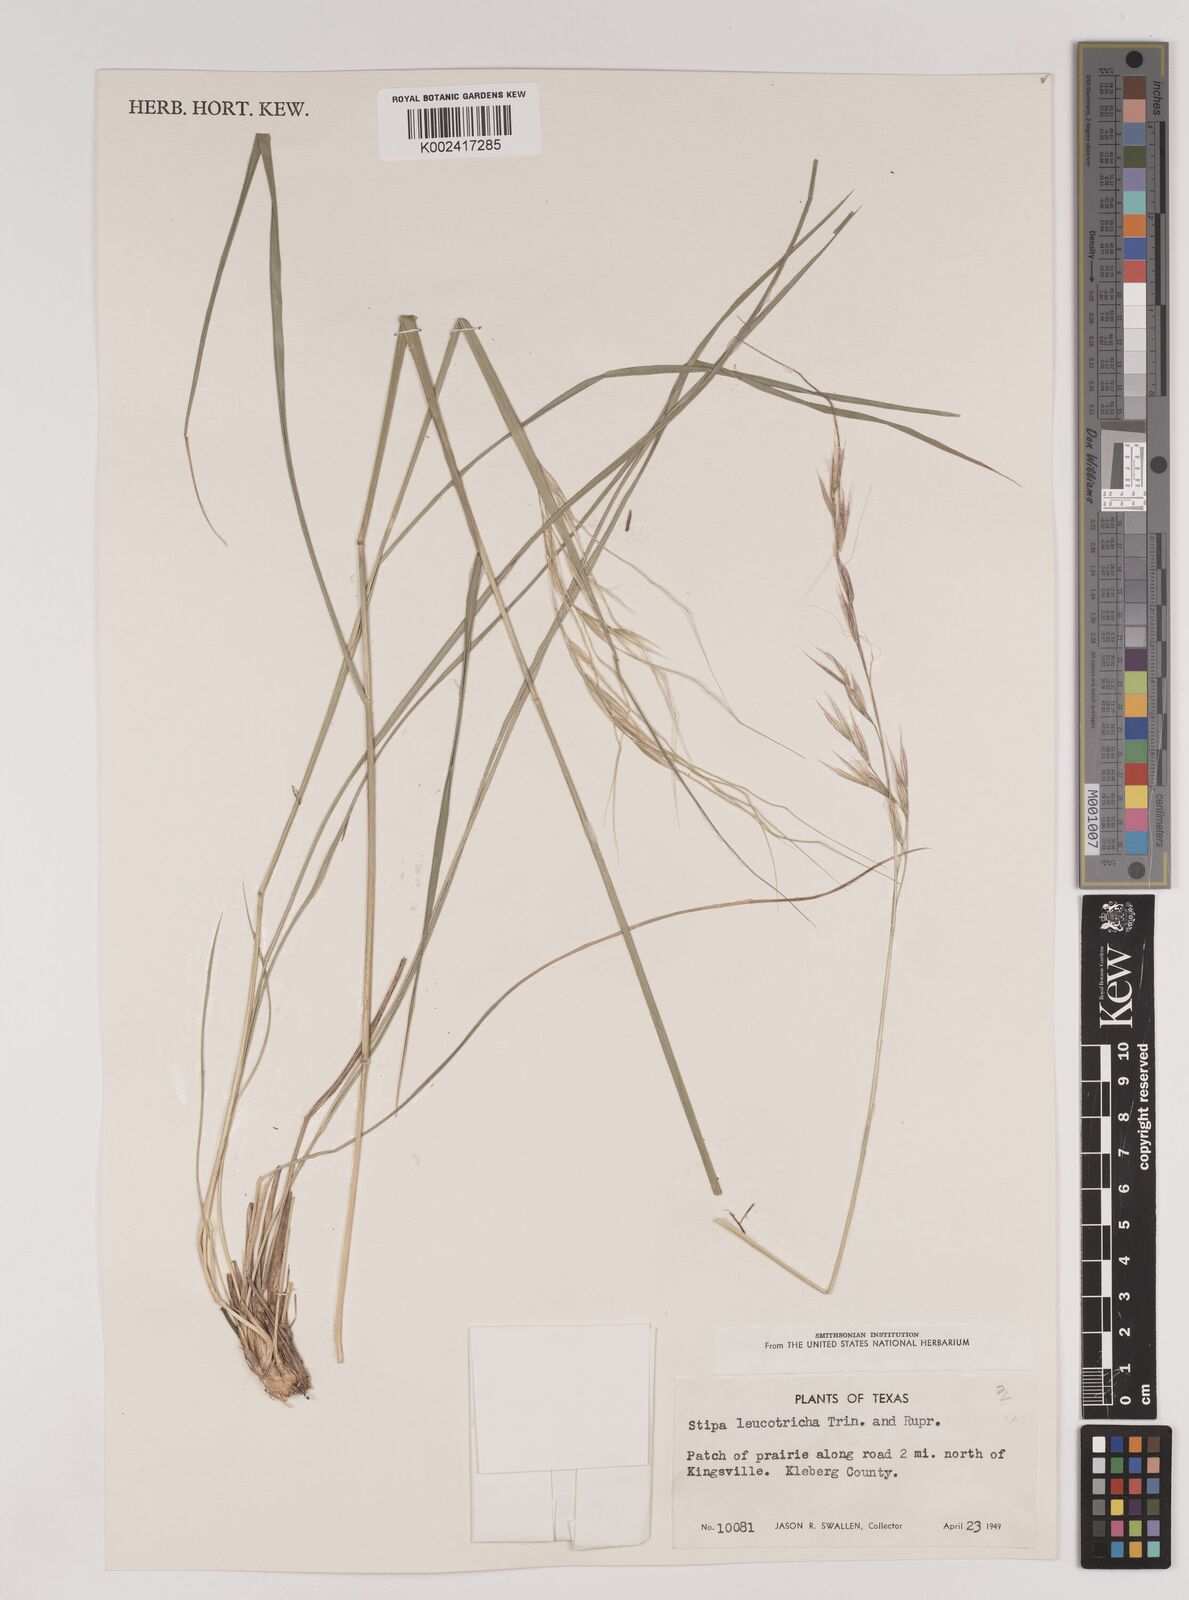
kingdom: Plantae
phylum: Tracheophyta
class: Liliopsida
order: Poales
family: Poaceae
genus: Nassella
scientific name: Nassella leucotricha
